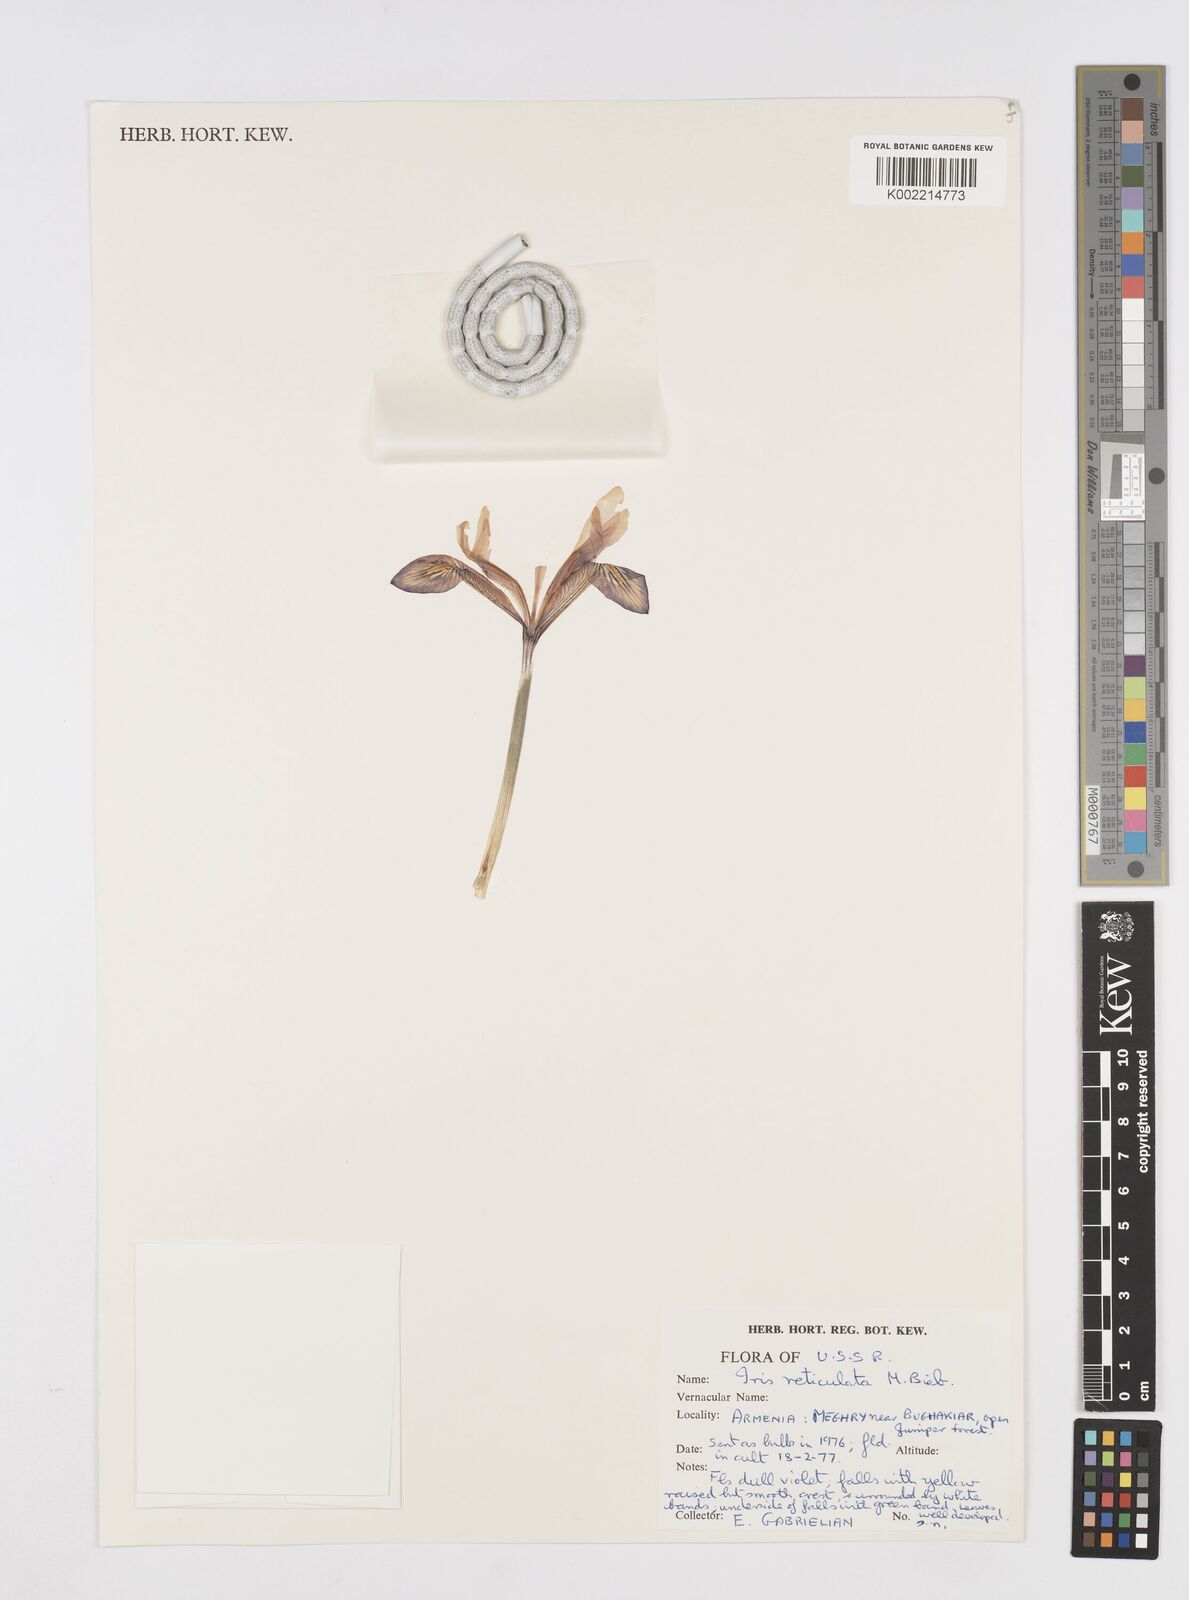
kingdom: Plantae
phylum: Tracheophyta
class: Liliopsida
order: Asparagales
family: Iridaceae
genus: Iris
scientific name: Iris reticulata
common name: Netted iris
